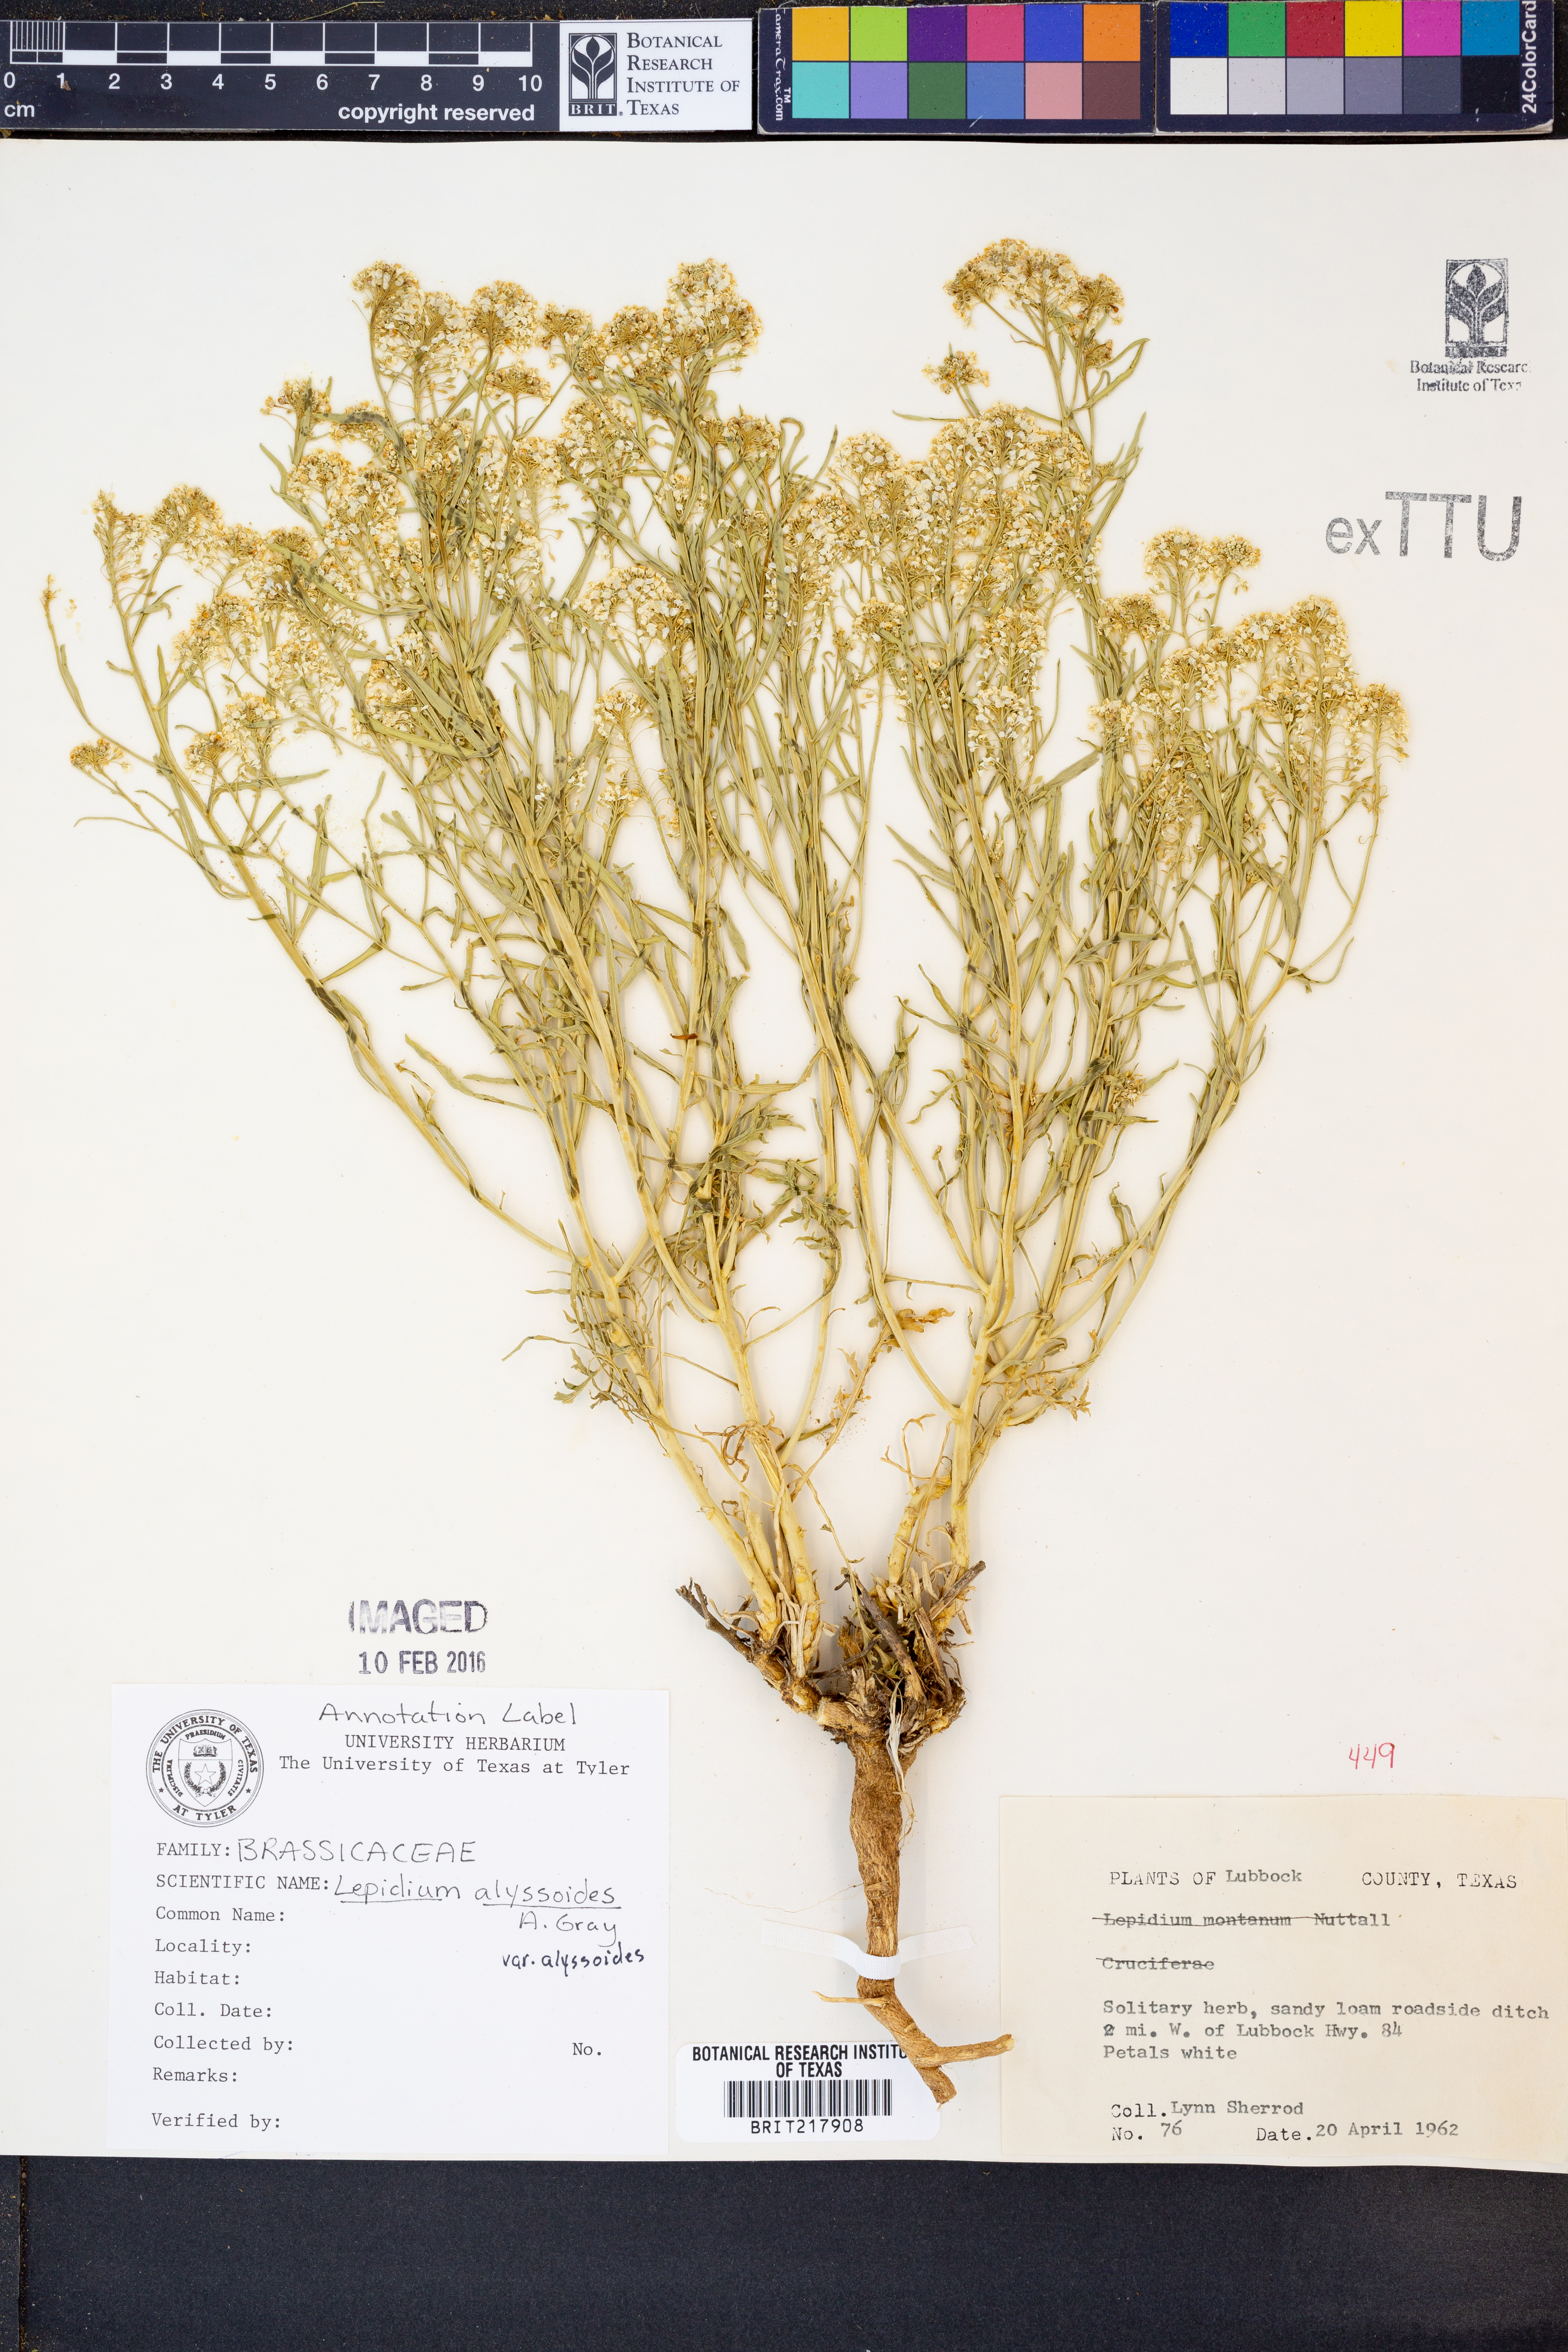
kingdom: Plantae
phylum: Tracheophyta
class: Magnoliopsida
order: Brassicales
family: Brassicaceae
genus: Lepidium
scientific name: Lepidium alyssoides
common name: Mesa pepperweed
